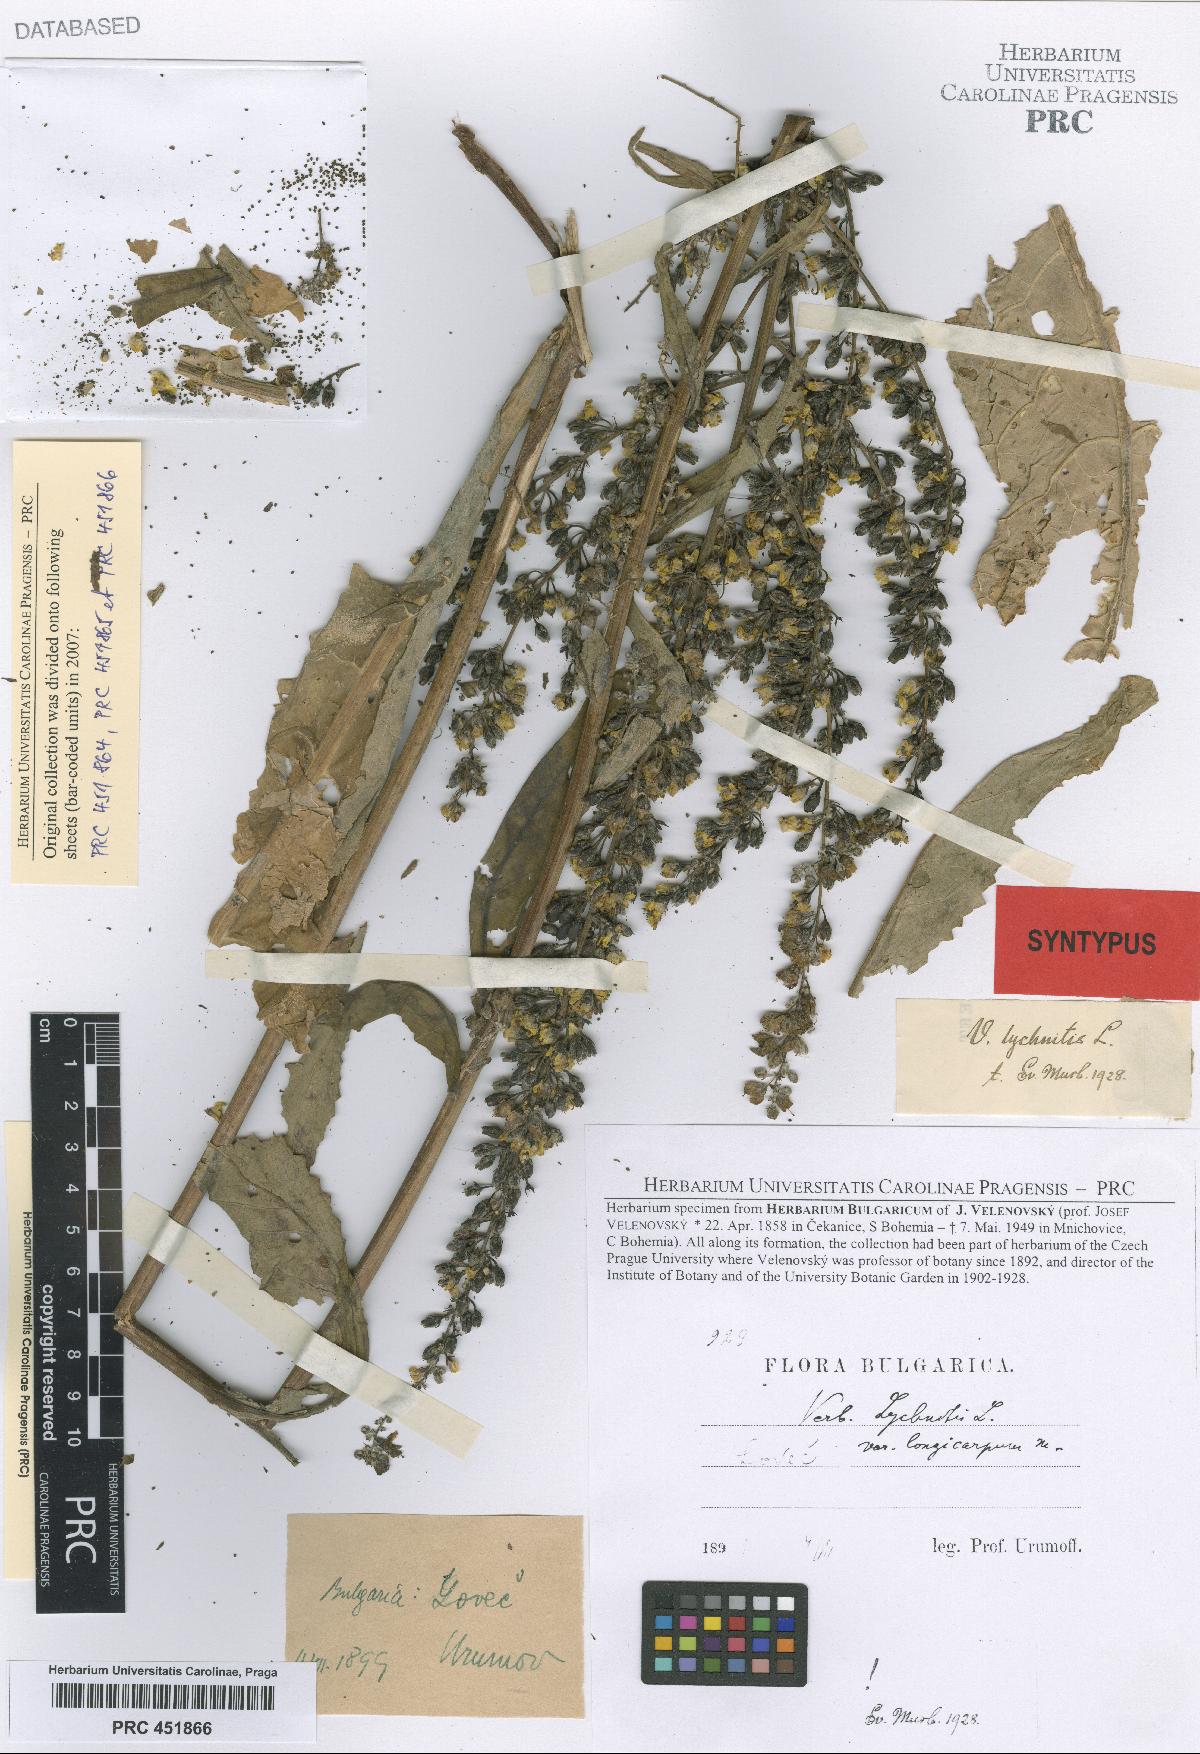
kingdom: Plantae
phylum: Tracheophyta
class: Magnoliopsida
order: Lamiales
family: Scrophulariaceae
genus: Verbascum
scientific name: Verbascum lychnitis
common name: White mullein
